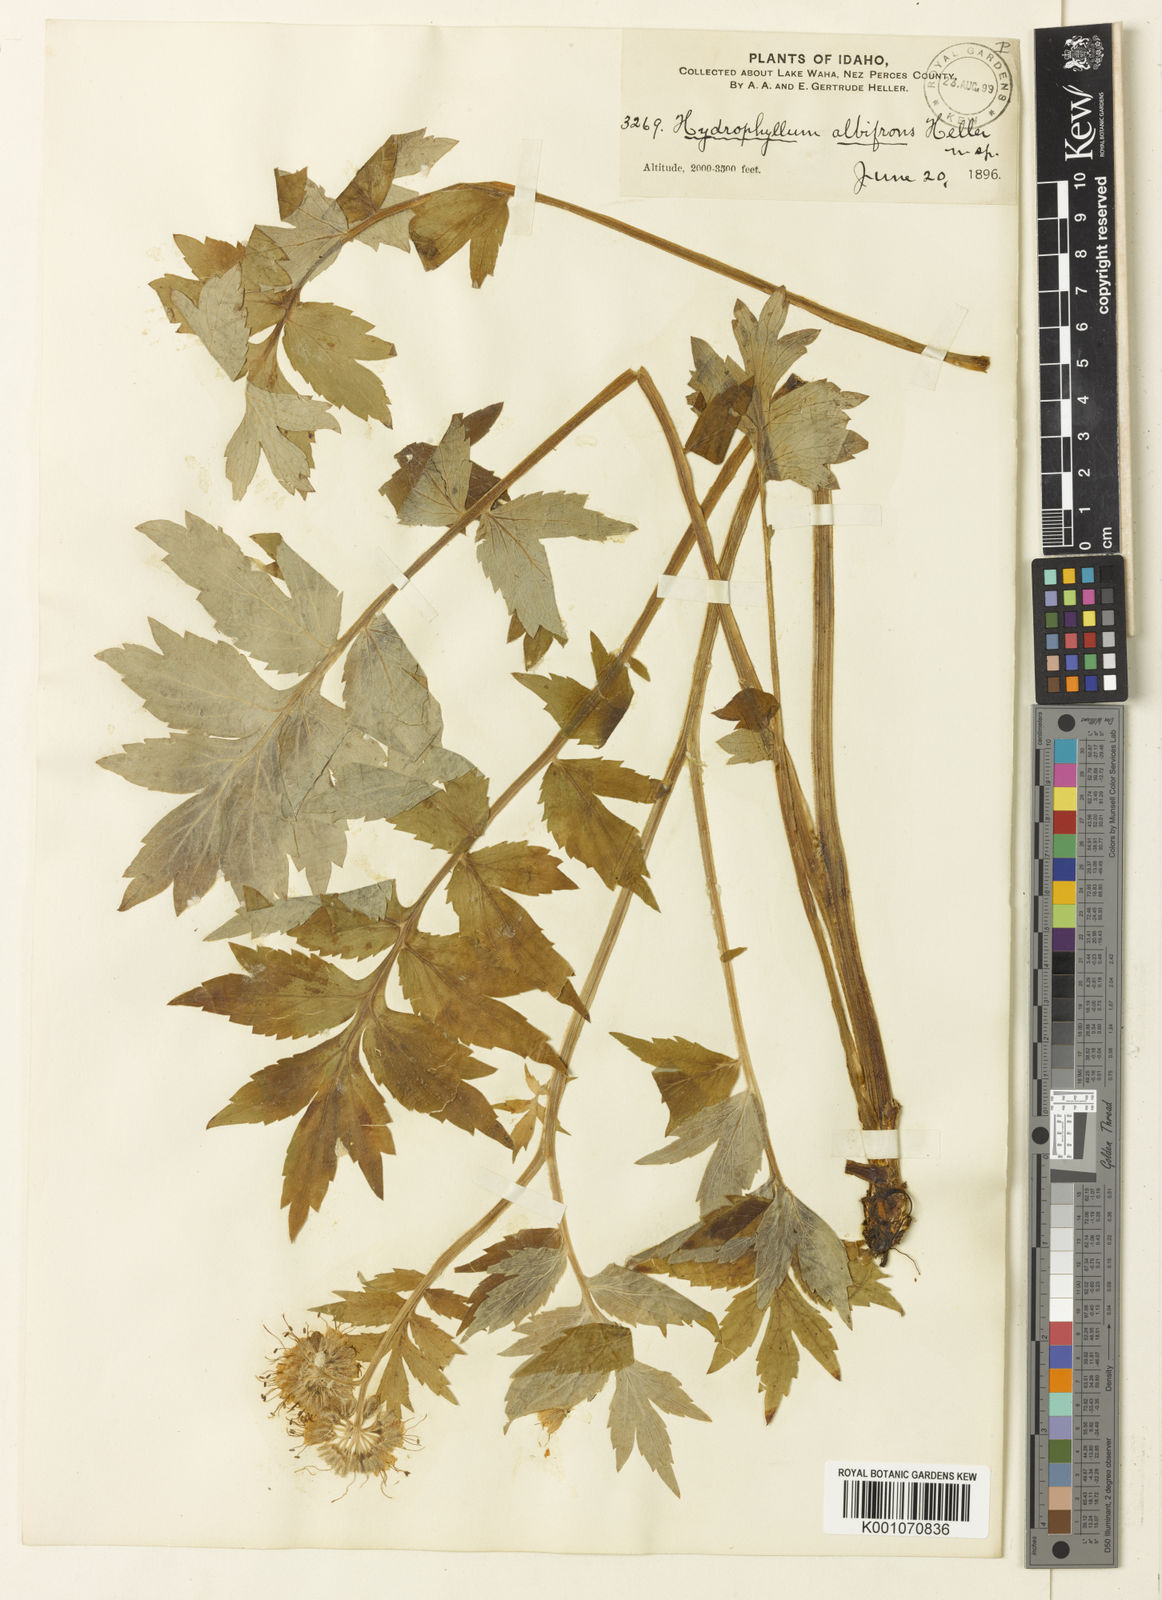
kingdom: Plantae
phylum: Tracheophyta
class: Magnoliopsida
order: Boraginales
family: Hydrophyllaceae
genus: Hydrophyllum
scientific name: Hydrophyllum fendleri
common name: Fendler's waterleaf
